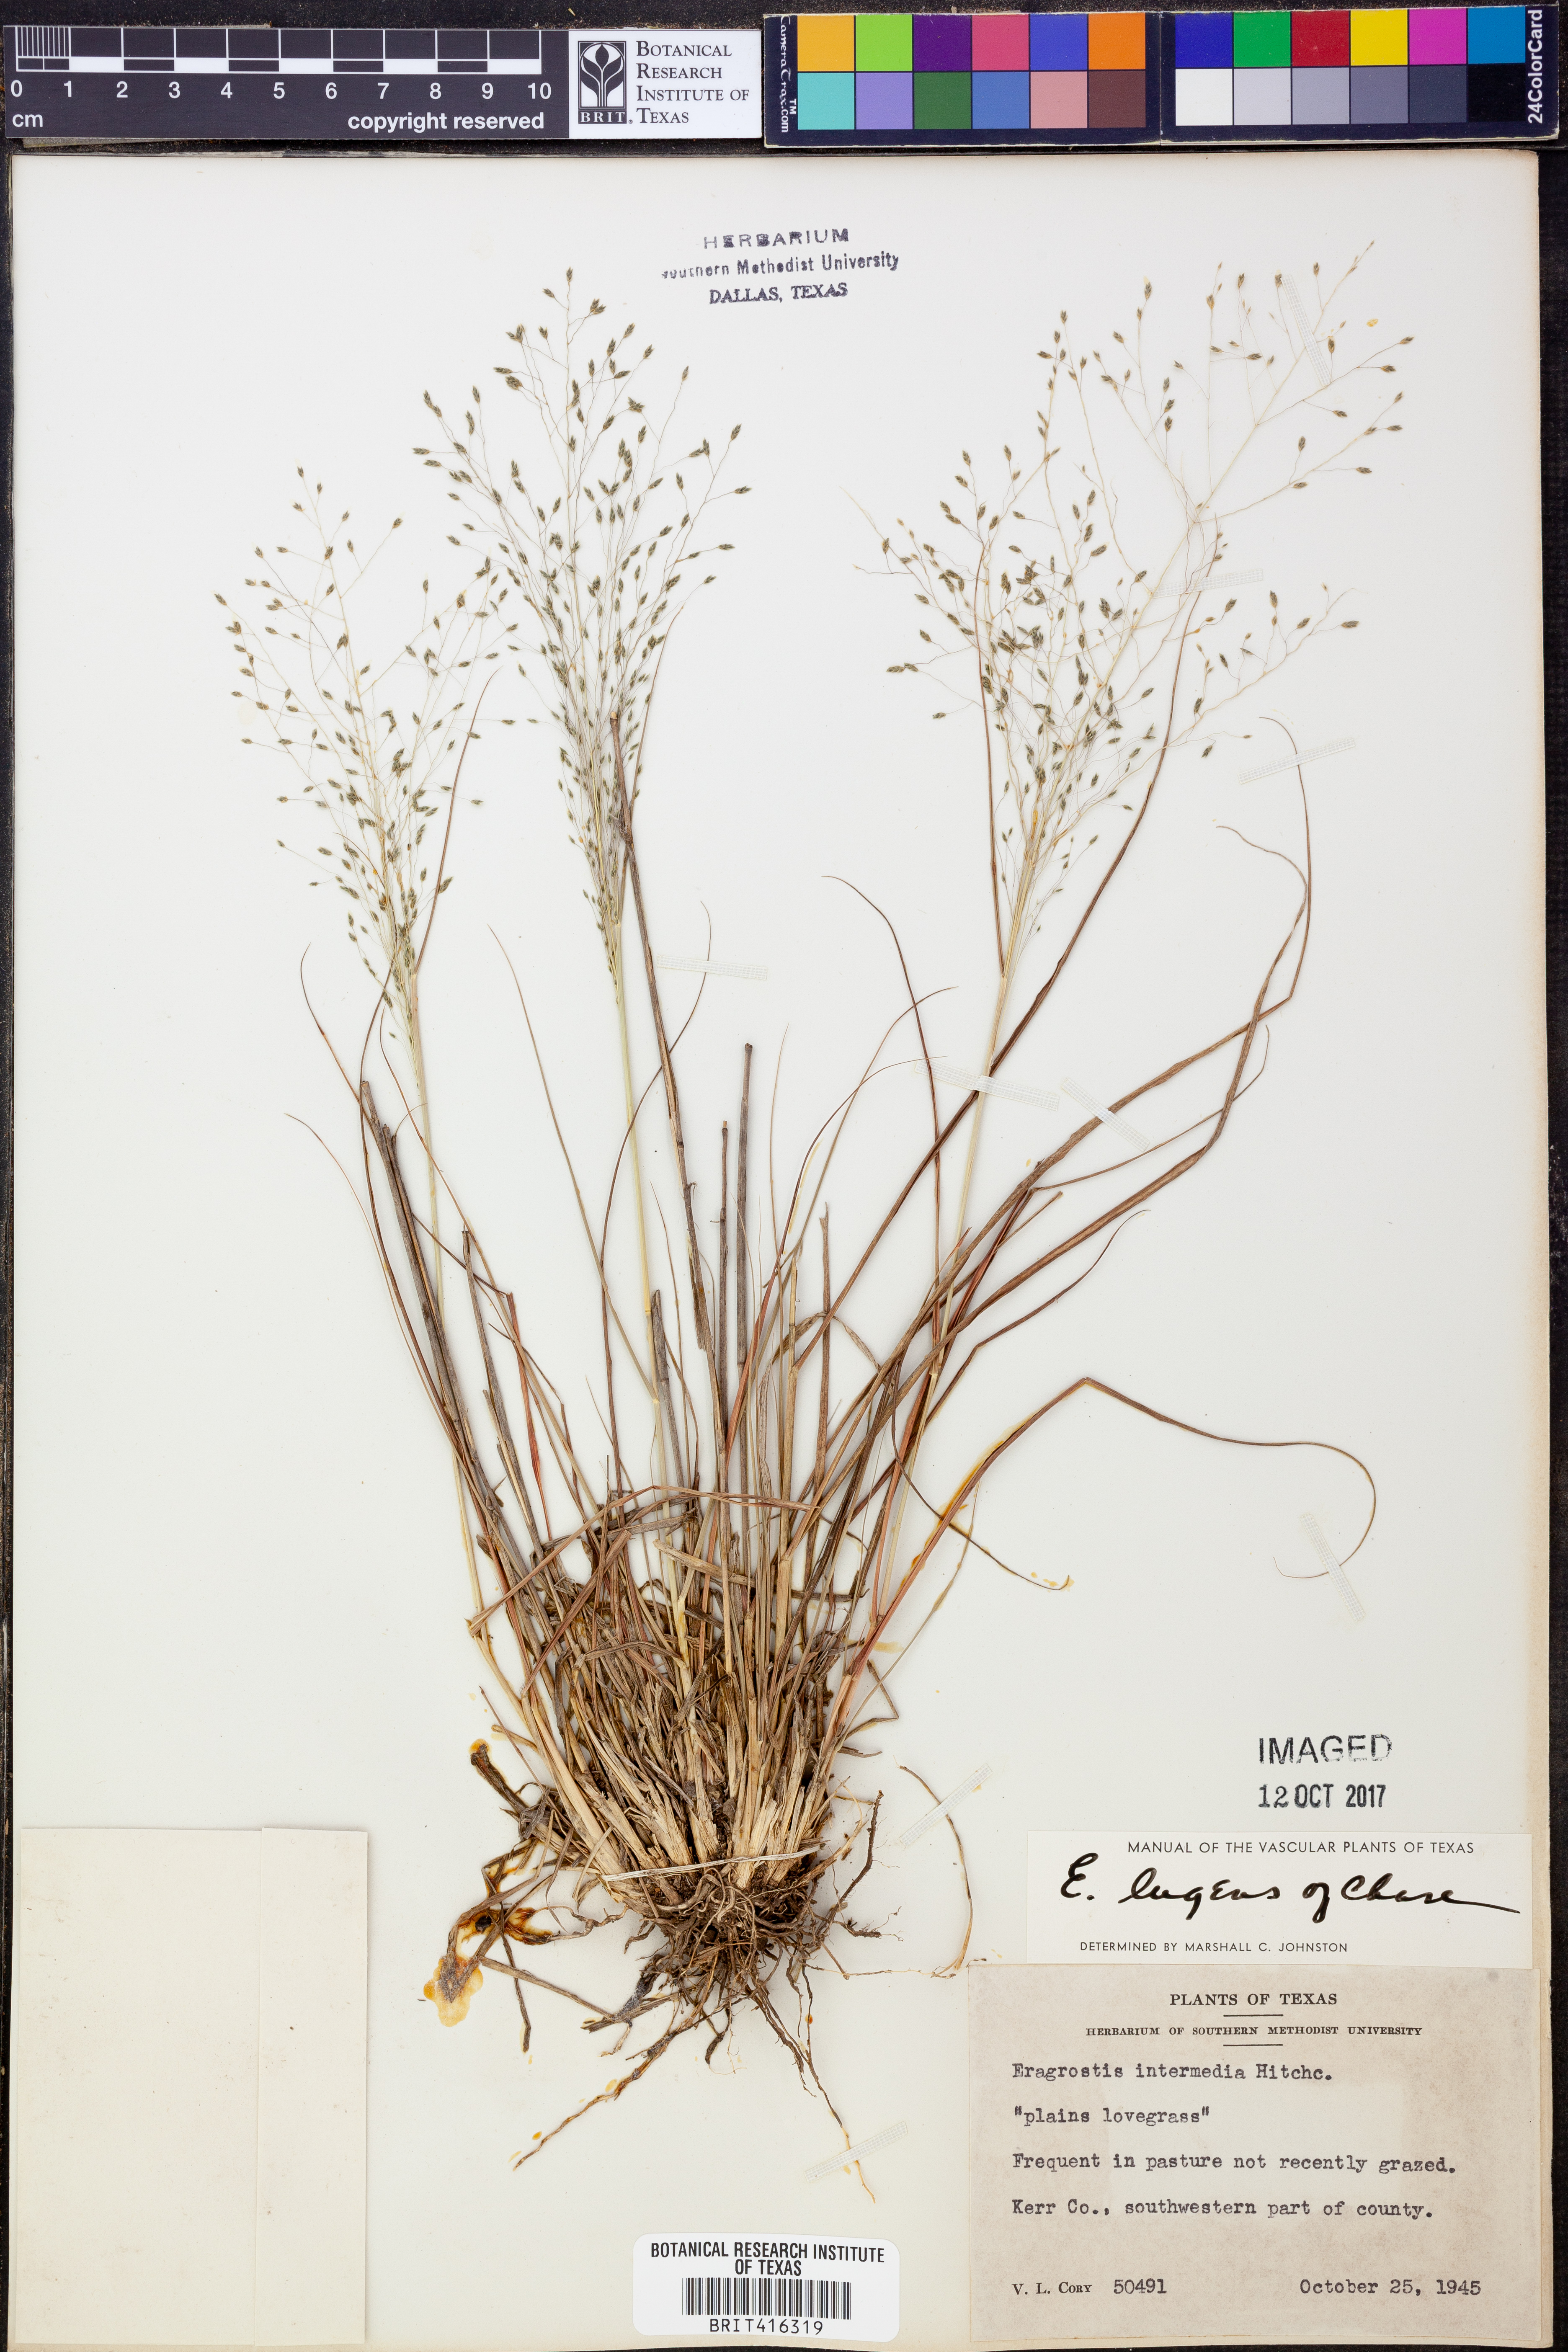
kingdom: Plantae
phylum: Tracheophyta
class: Liliopsida
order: Poales
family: Poaceae
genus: Eragrostis
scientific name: Eragrostis capillaris
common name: Hair-like lovegrass
